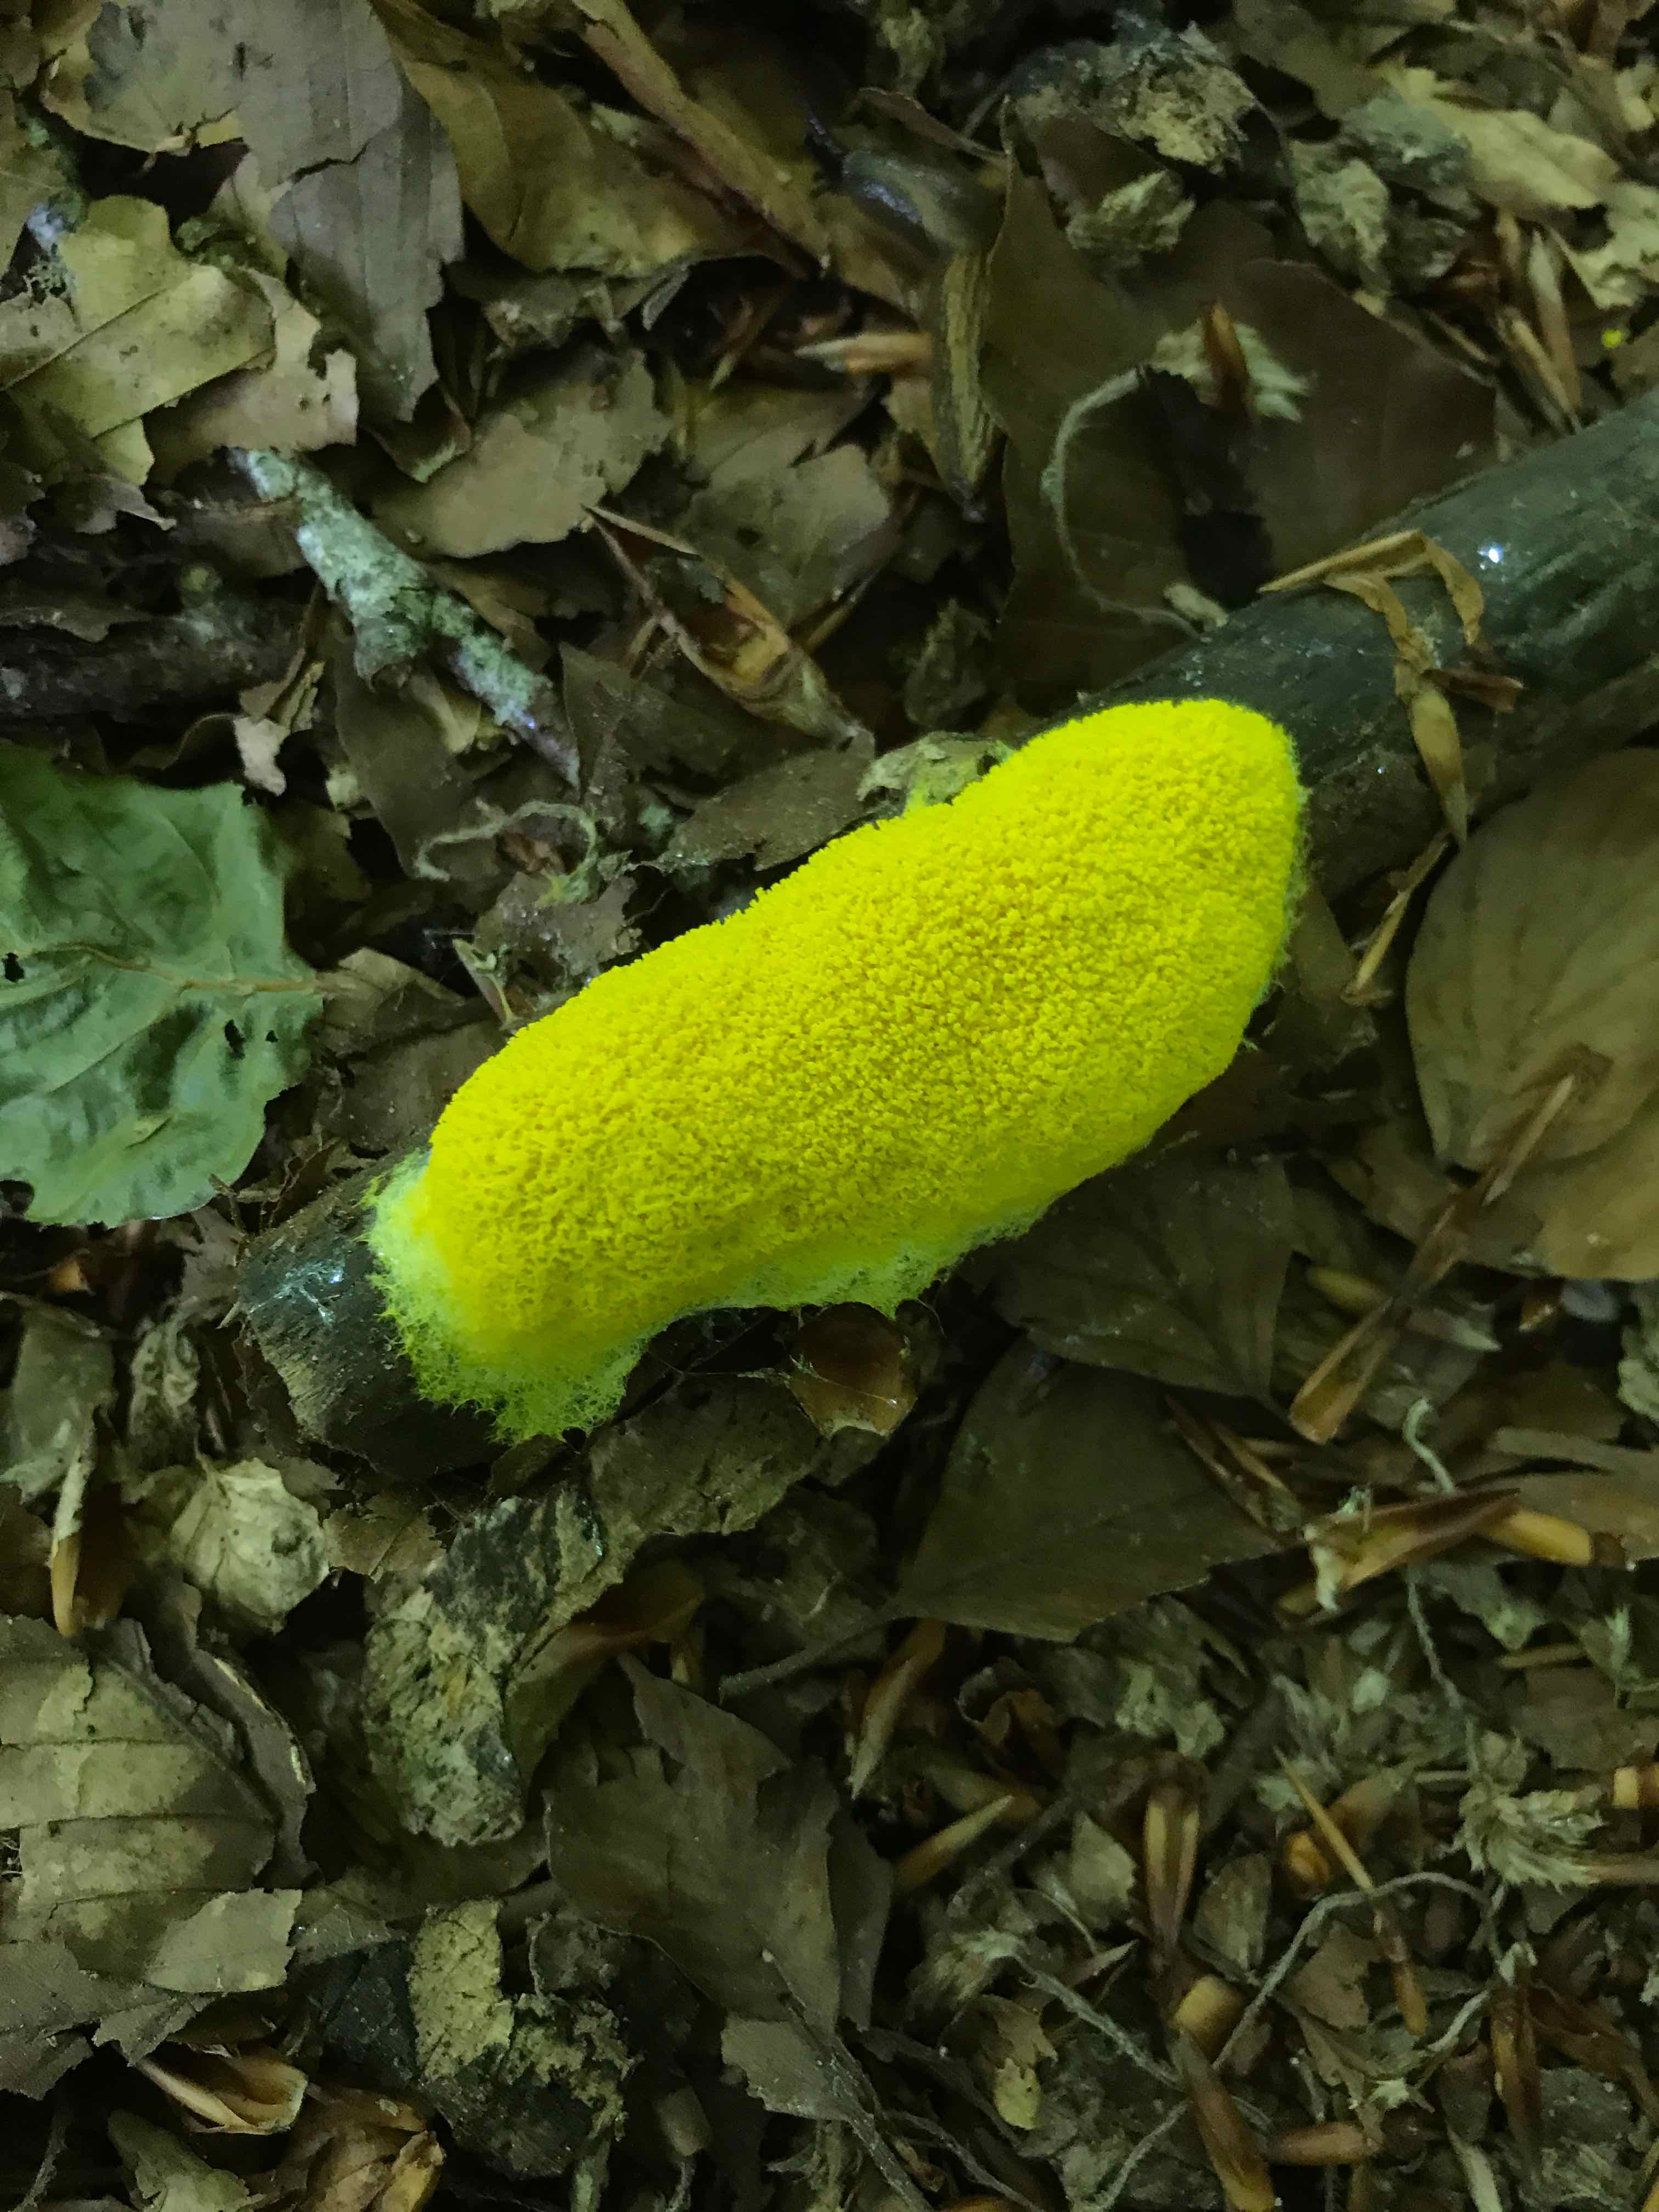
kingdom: Protozoa
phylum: Mycetozoa
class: Myxomycetes
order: Physarales
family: Physaraceae
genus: Fuligo
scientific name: Fuligo septica
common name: gul troldsmør
